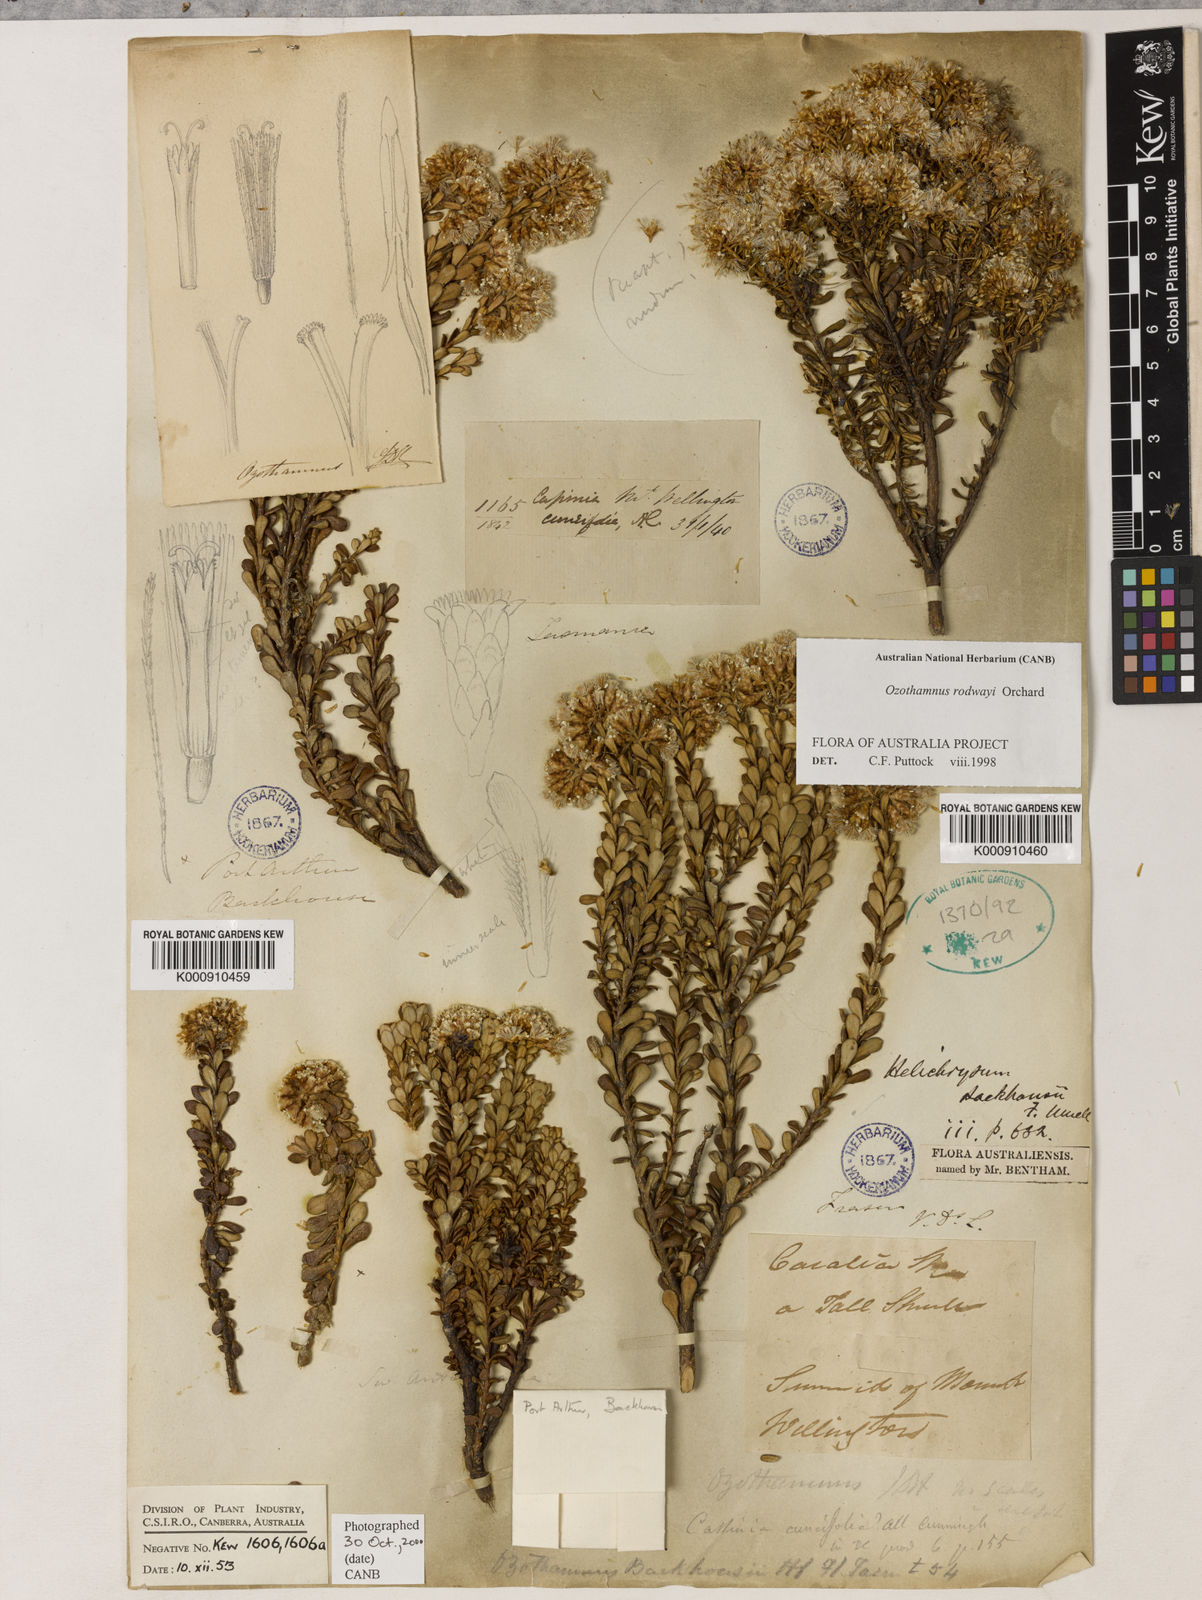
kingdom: Plantae
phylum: Tracheophyta
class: Magnoliopsida
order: Asterales
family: Asteraceae
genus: Ozothamnus
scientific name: Ozothamnus rodwayi
